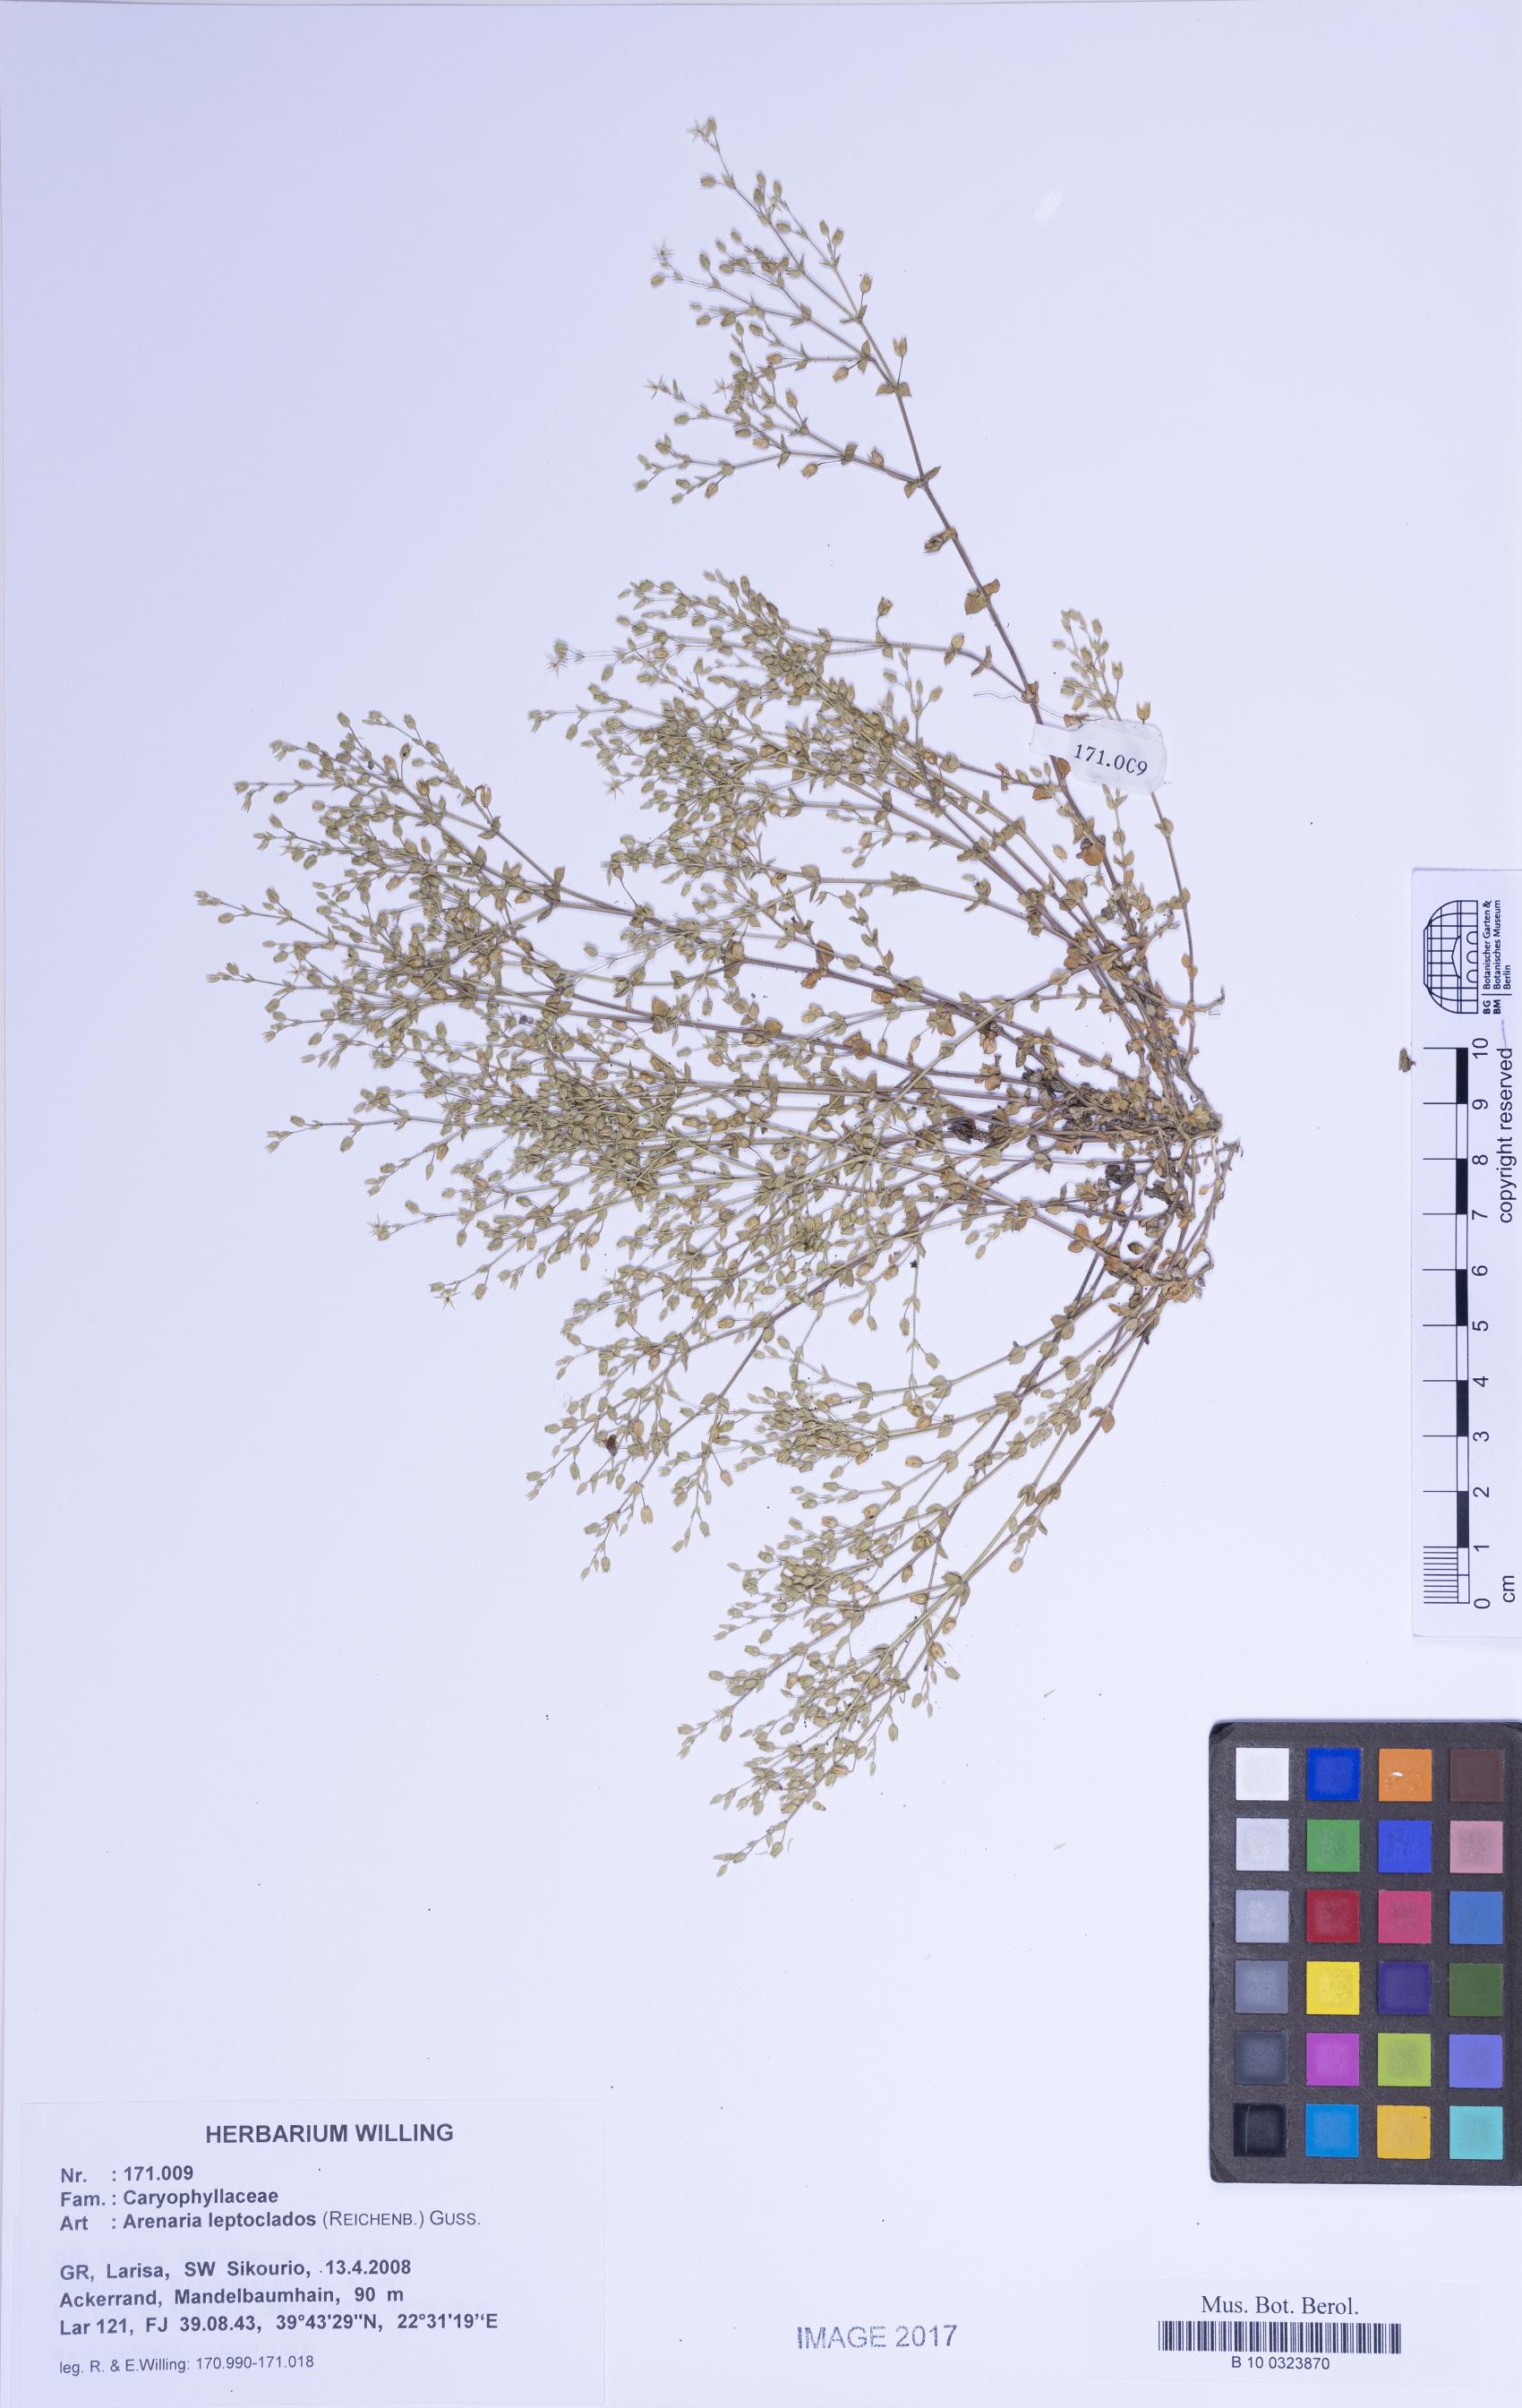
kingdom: Plantae
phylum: Tracheophyta
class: Magnoliopsida
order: Caryophyllales
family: Caryophyllaceae
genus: Arenaria
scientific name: Arenaria leptoclados
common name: Thyme-leaved sandwort
